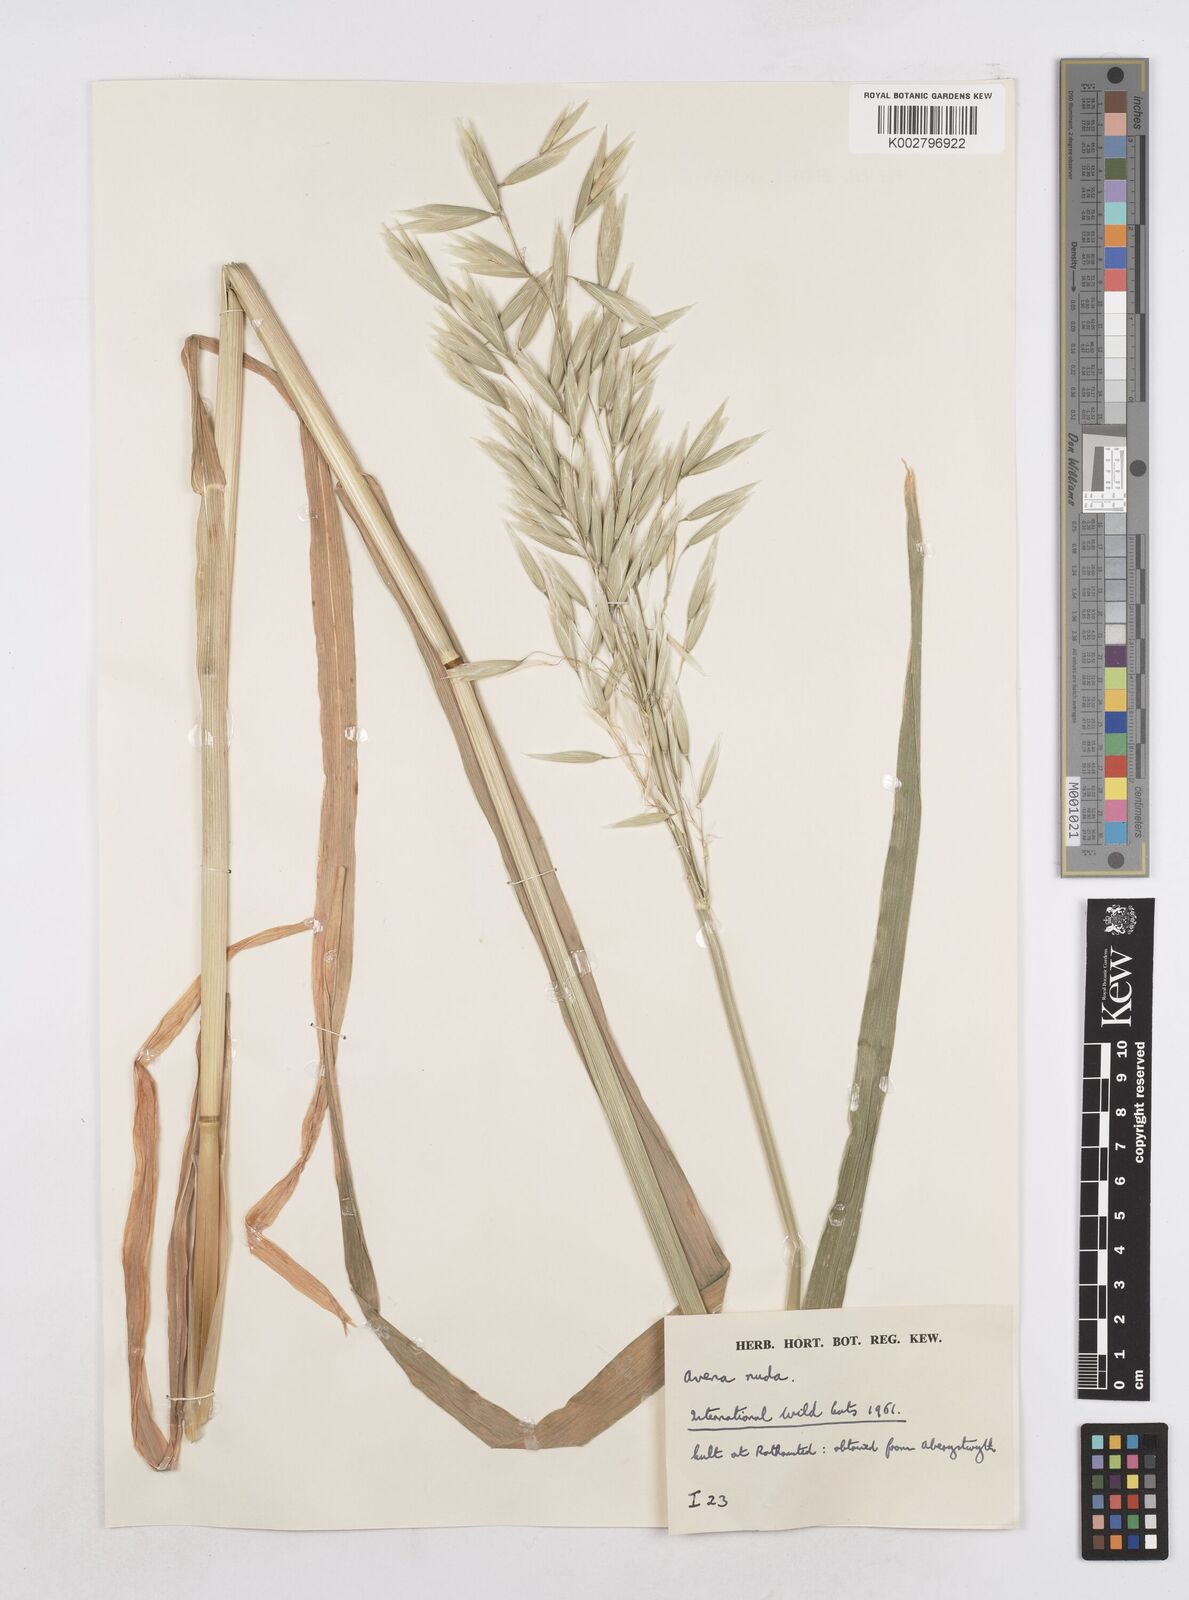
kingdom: Plantae
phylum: Tracheophyta
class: Liliopsida
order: Poales
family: Poaceae
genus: Avena
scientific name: Avena nuda
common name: Naked oat
